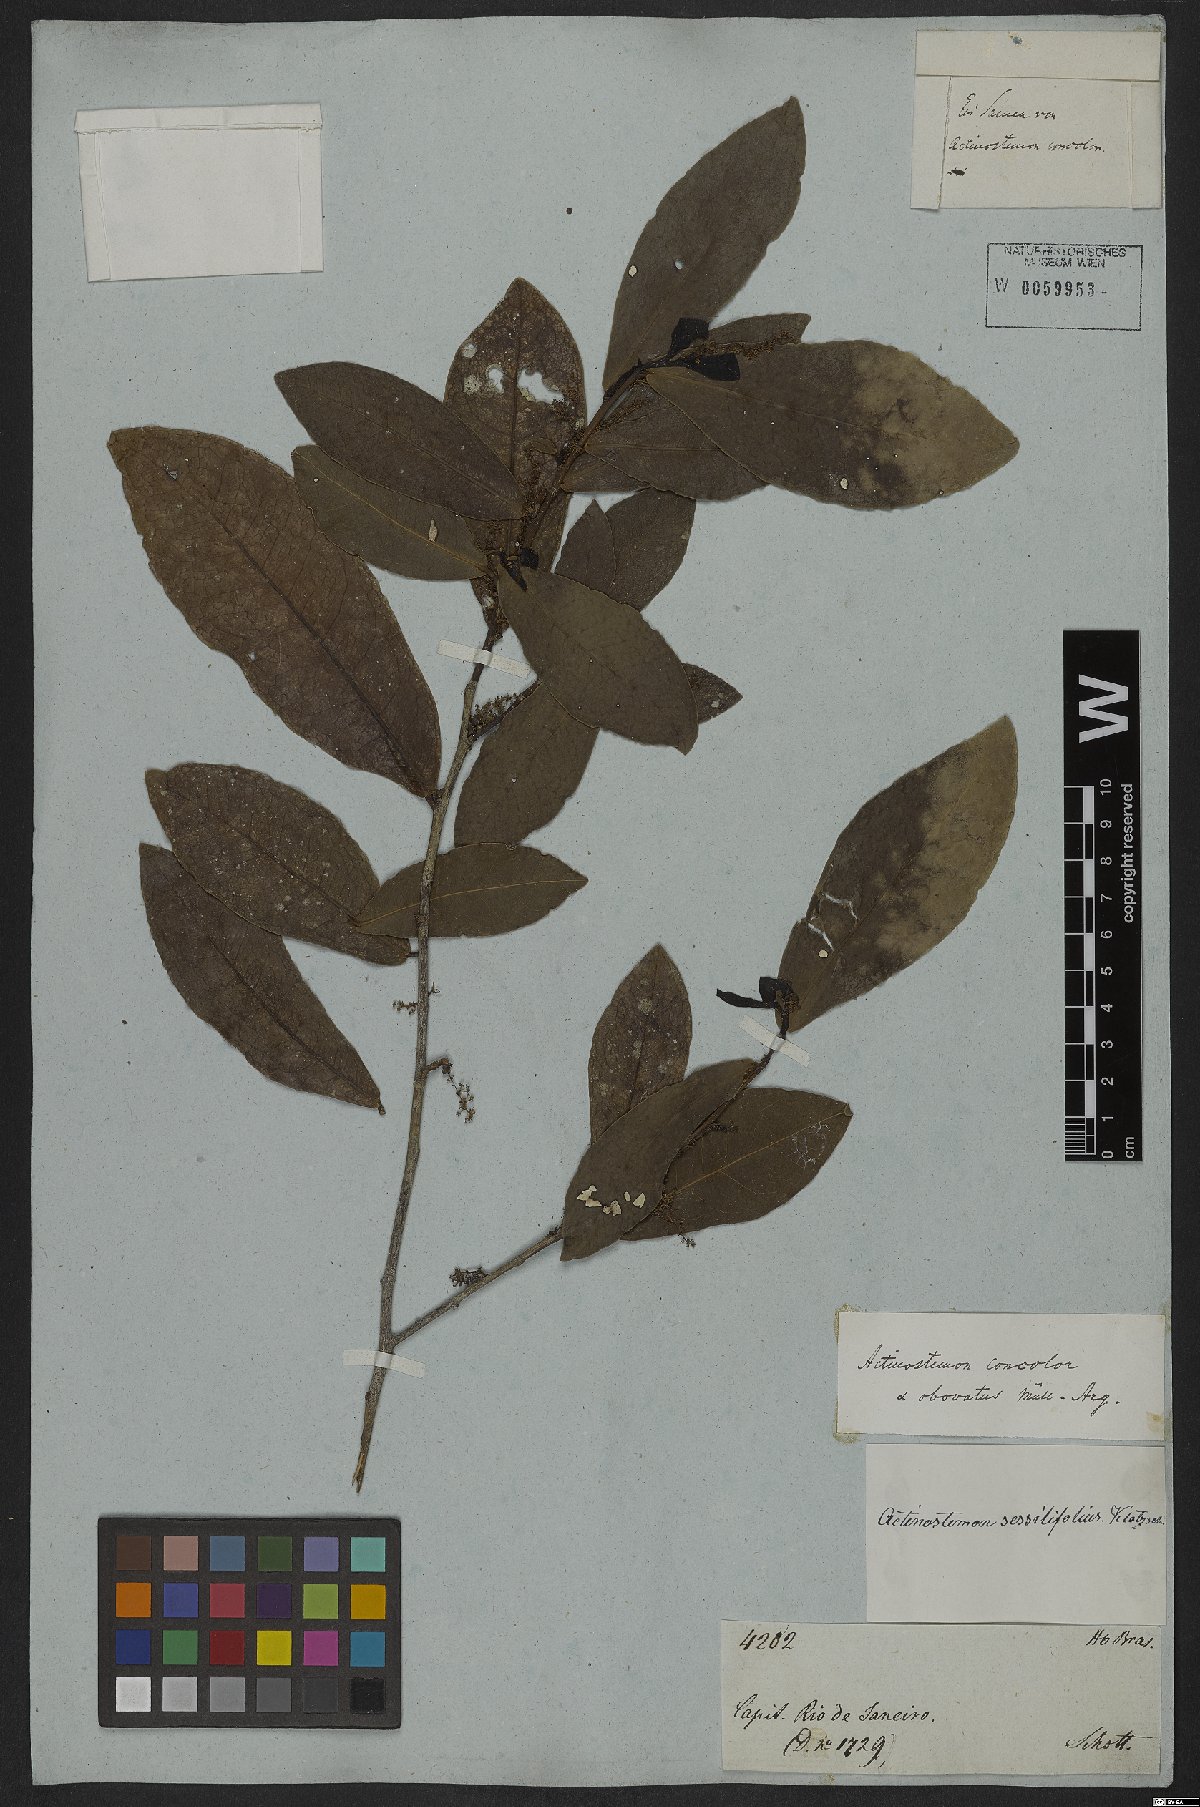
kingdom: Plantae
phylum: Tracheophyta
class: Magnoliopsida
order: Malpighiales
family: Euphorbiaceae
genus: Actinostemon
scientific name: Actinostemon concolor
